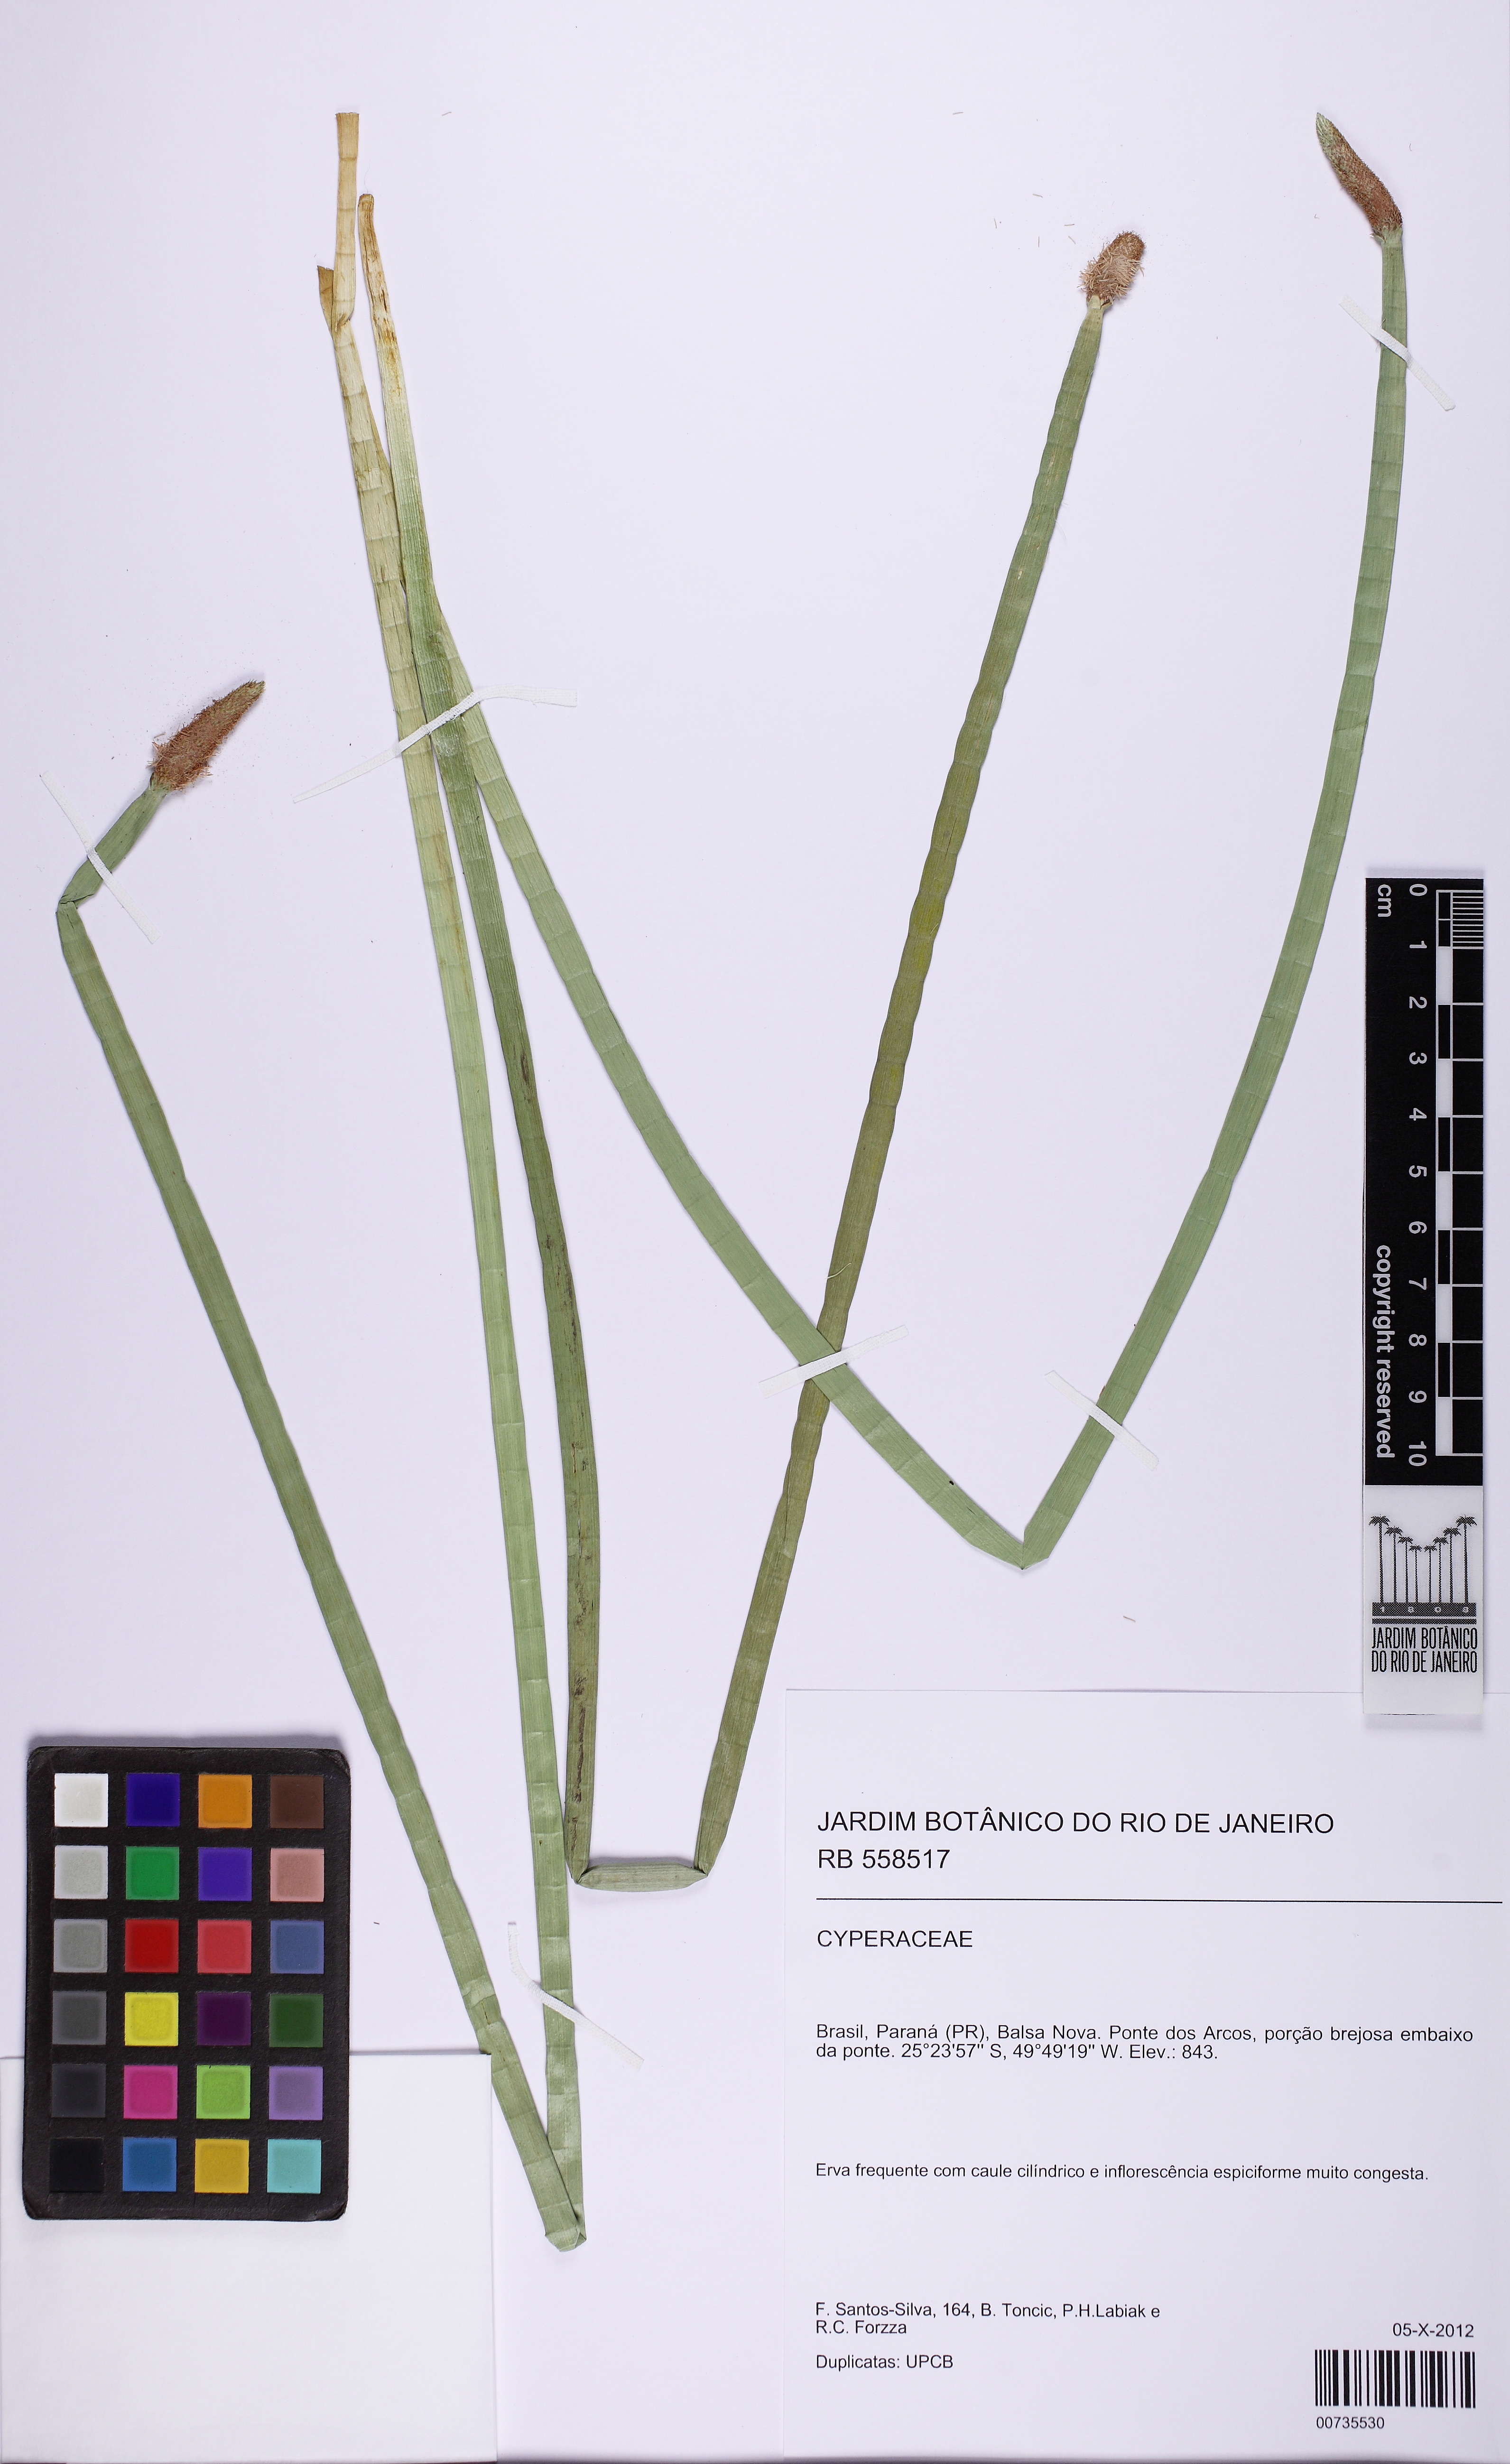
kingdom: Plantae
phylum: Tracheophyta
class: Liliopsida
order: Poales
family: Cyperaceae
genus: Eleocharis
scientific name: Eleocharis elegans
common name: Elegant spike-rush
